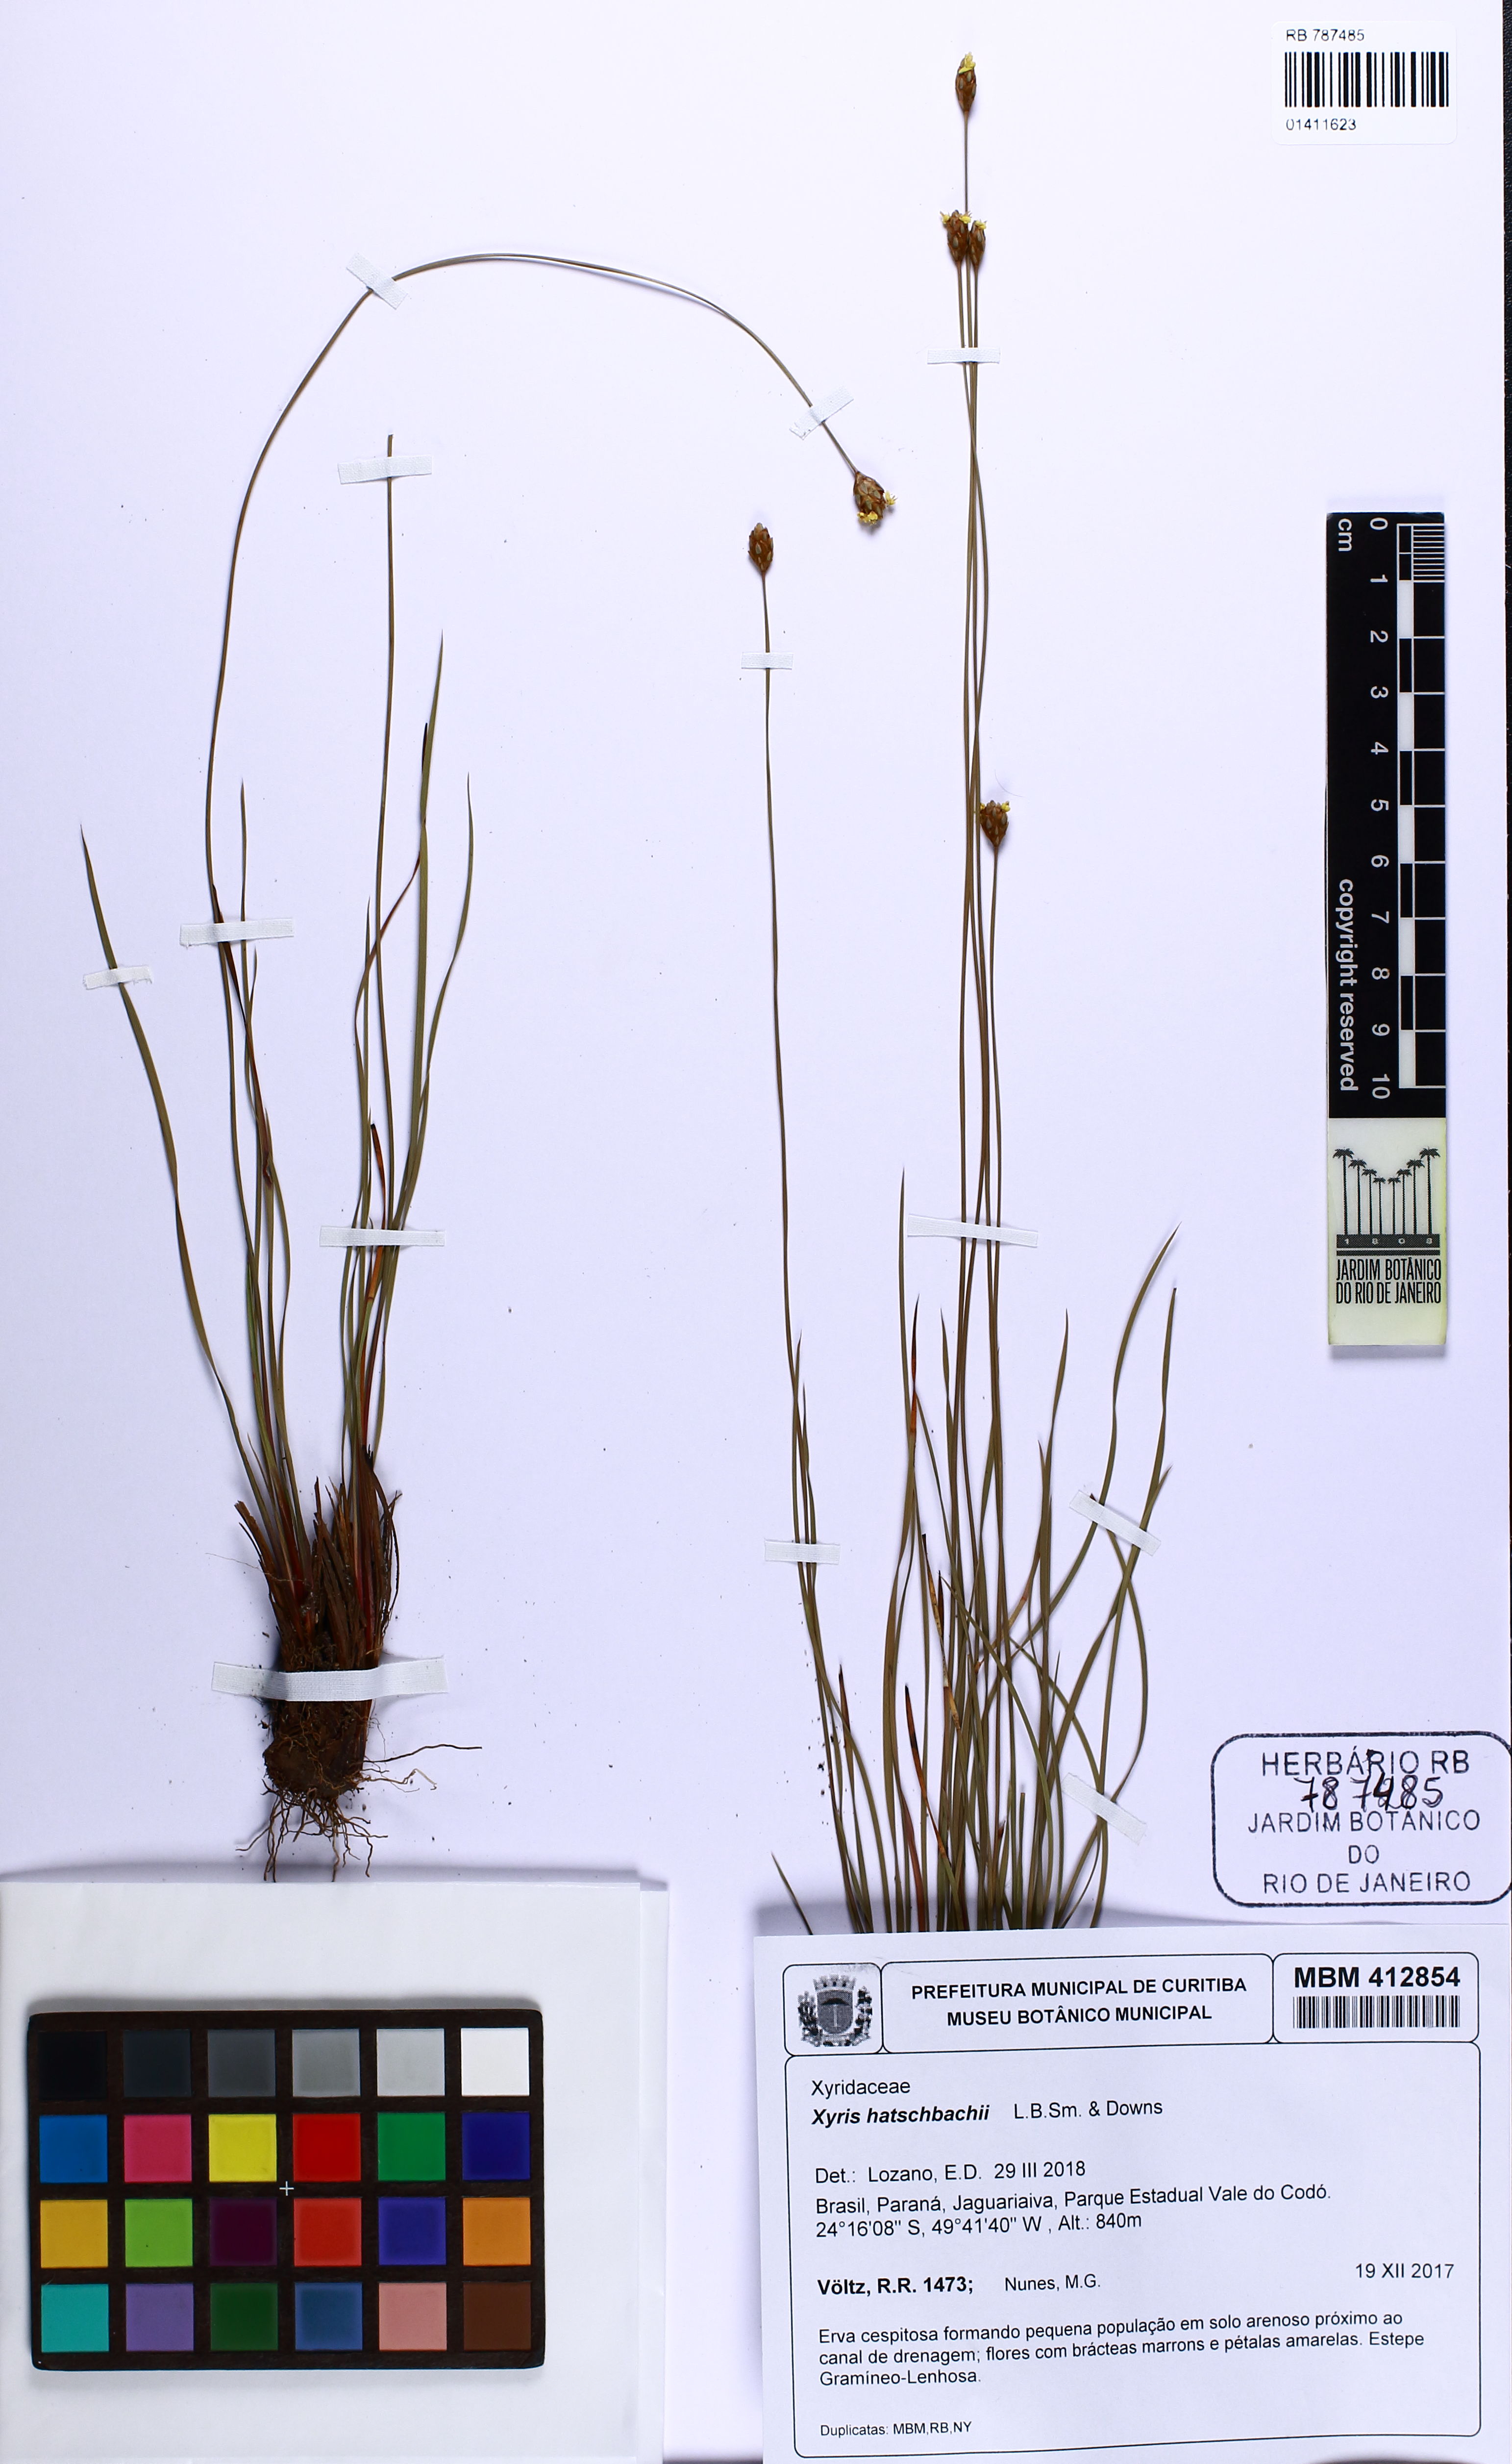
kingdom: Plantae
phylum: Tracheophyta
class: Liliopsida
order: Poales
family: Xyridaceae
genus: Xyris
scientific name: Xyris hatschbachii
